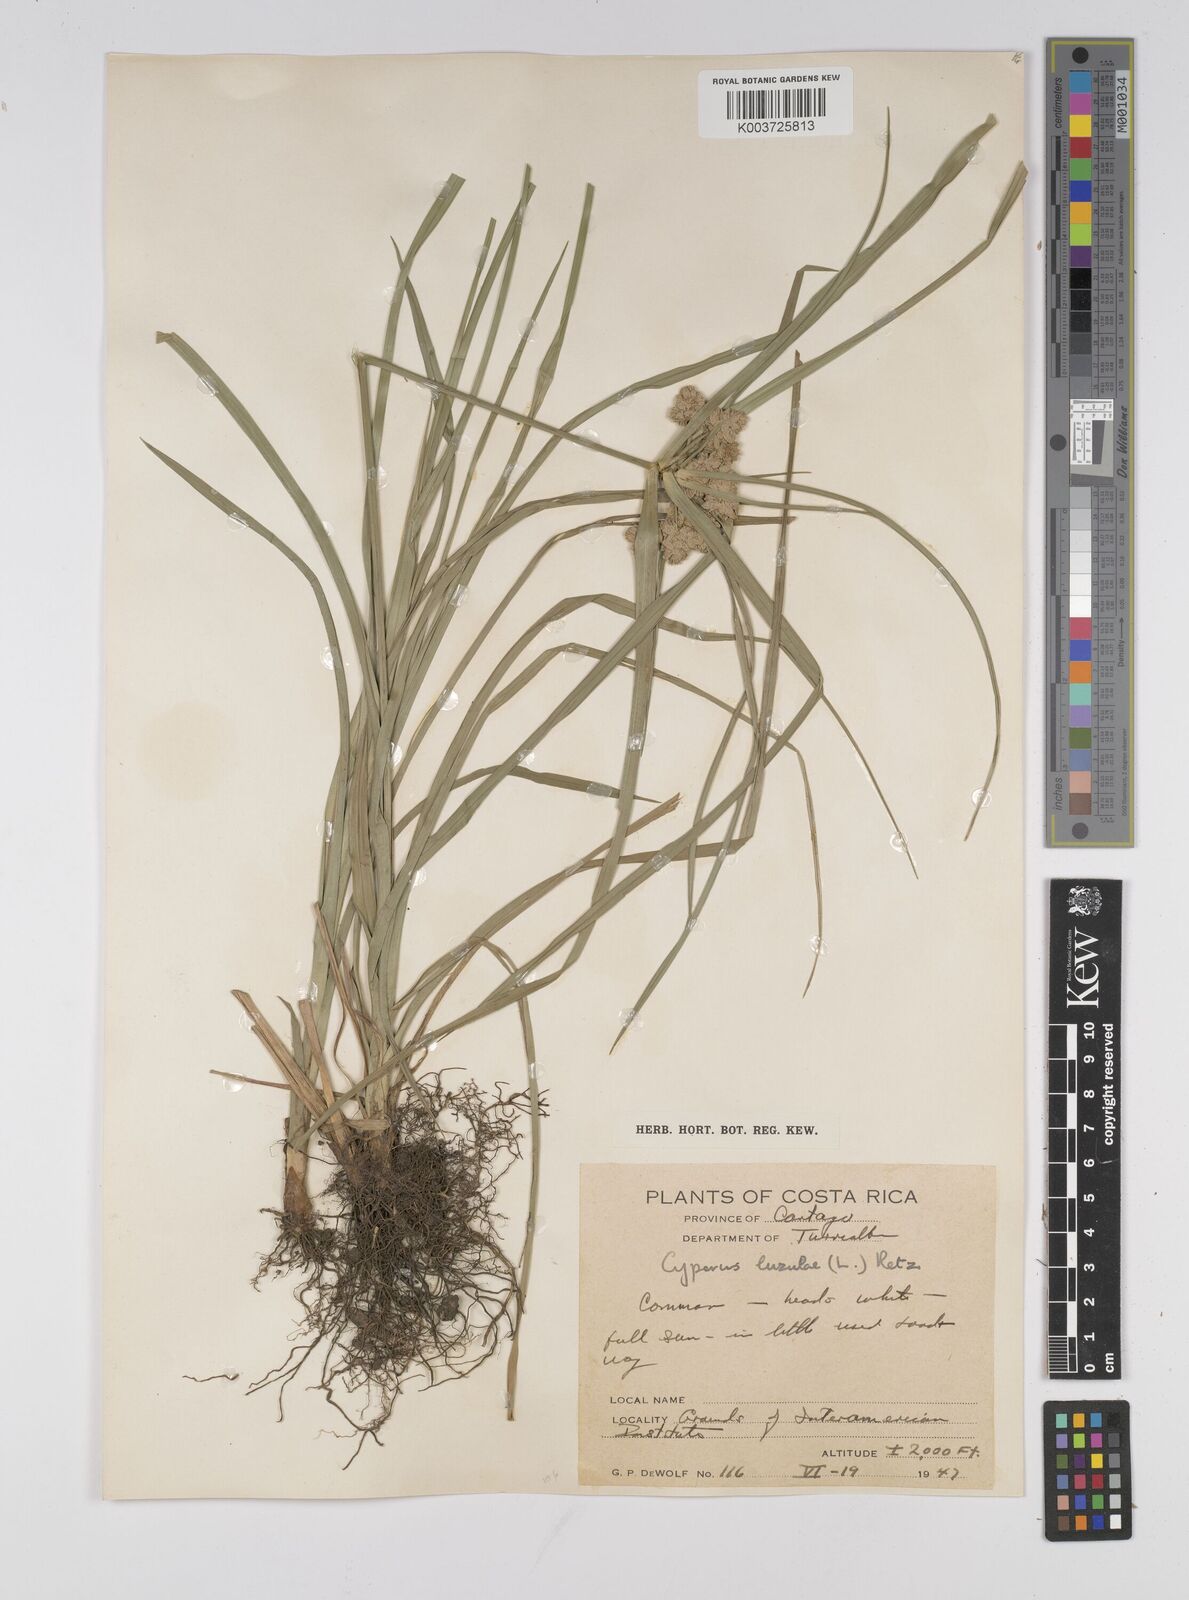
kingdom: Plantae
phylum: Tracheophyta
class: Liliopsida
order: Poales
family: Cyperaceae
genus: Cyperus
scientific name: Cyperus luzulae
